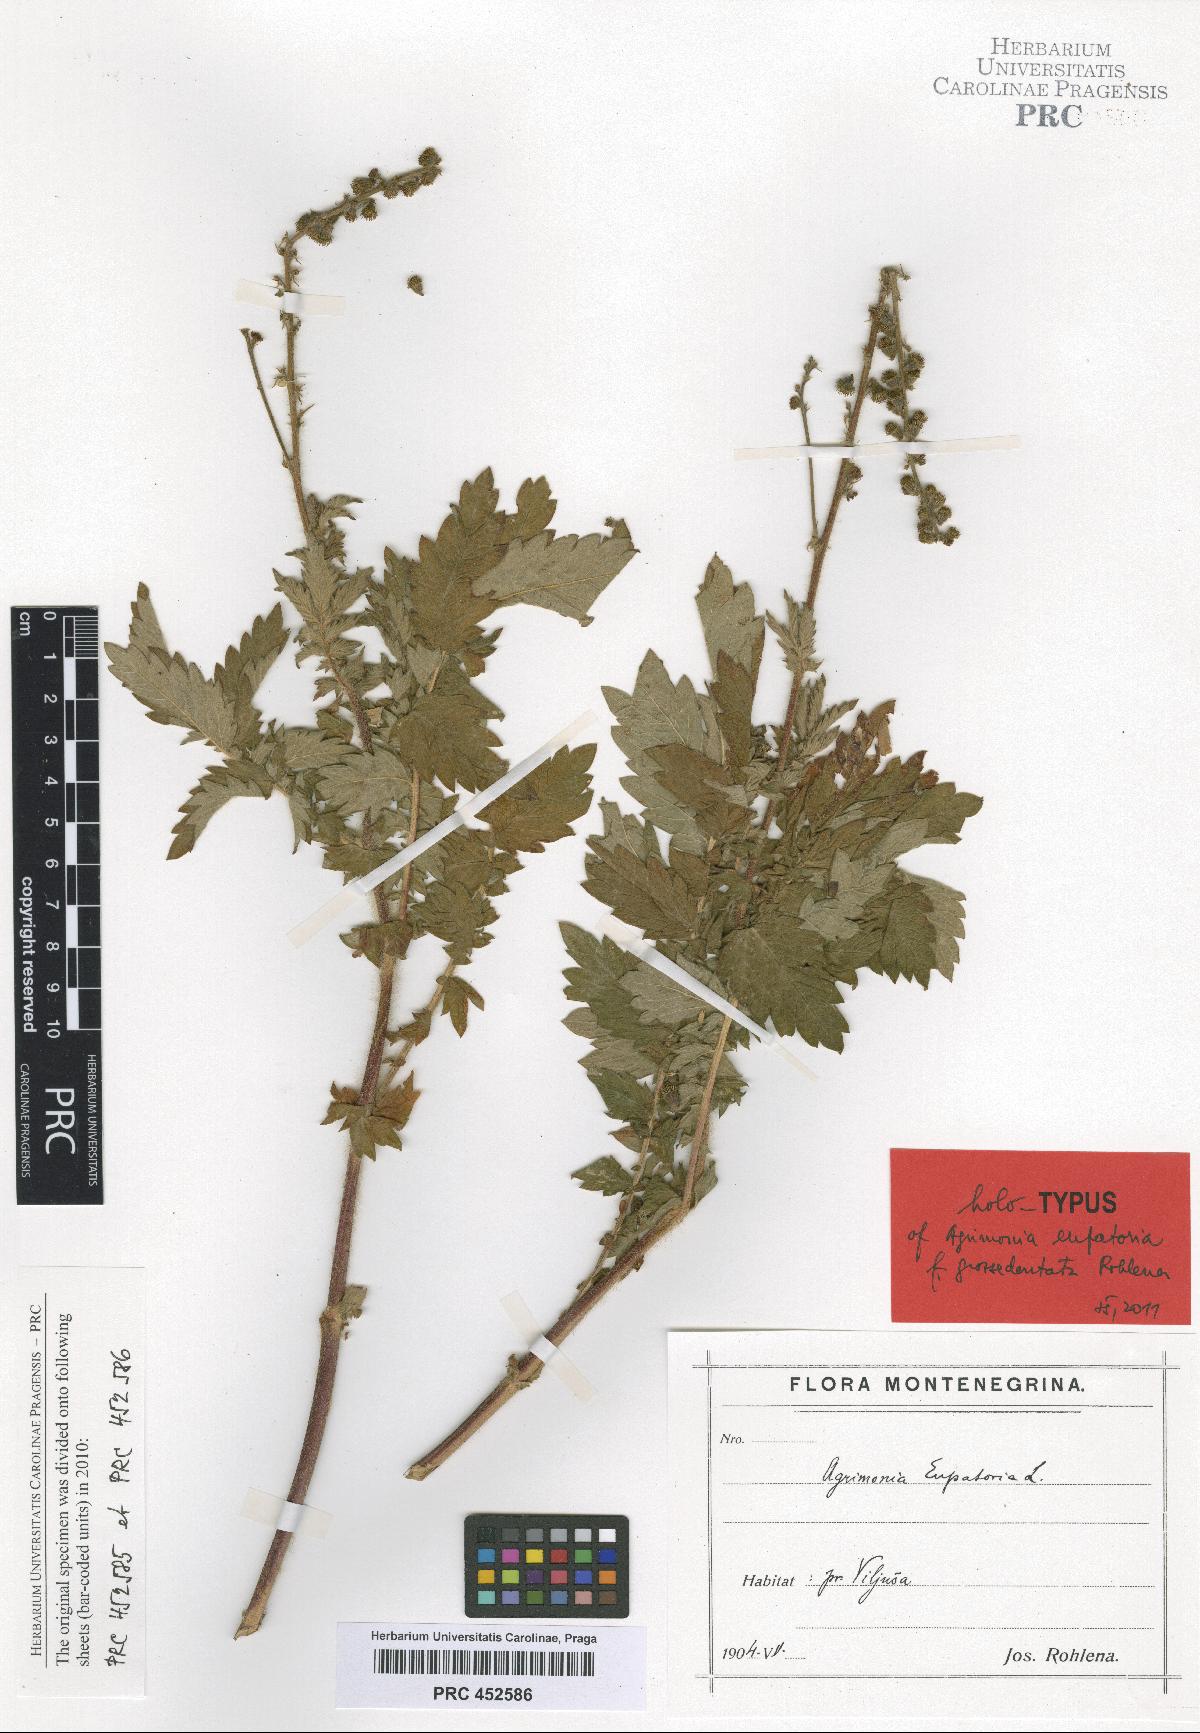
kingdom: Plantae
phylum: Tracheophyta
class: Magnoliopsida
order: Rosales
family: Rosaceae
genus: Agrimonia
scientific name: Agrimonia eupatoria
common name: Agrimony
